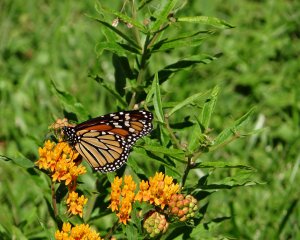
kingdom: Animalia
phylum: Arthropoda
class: Insecta
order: Lepidoptera
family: Nymphalidae
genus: Danaus
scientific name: Danaus plexippus
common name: Monarch
